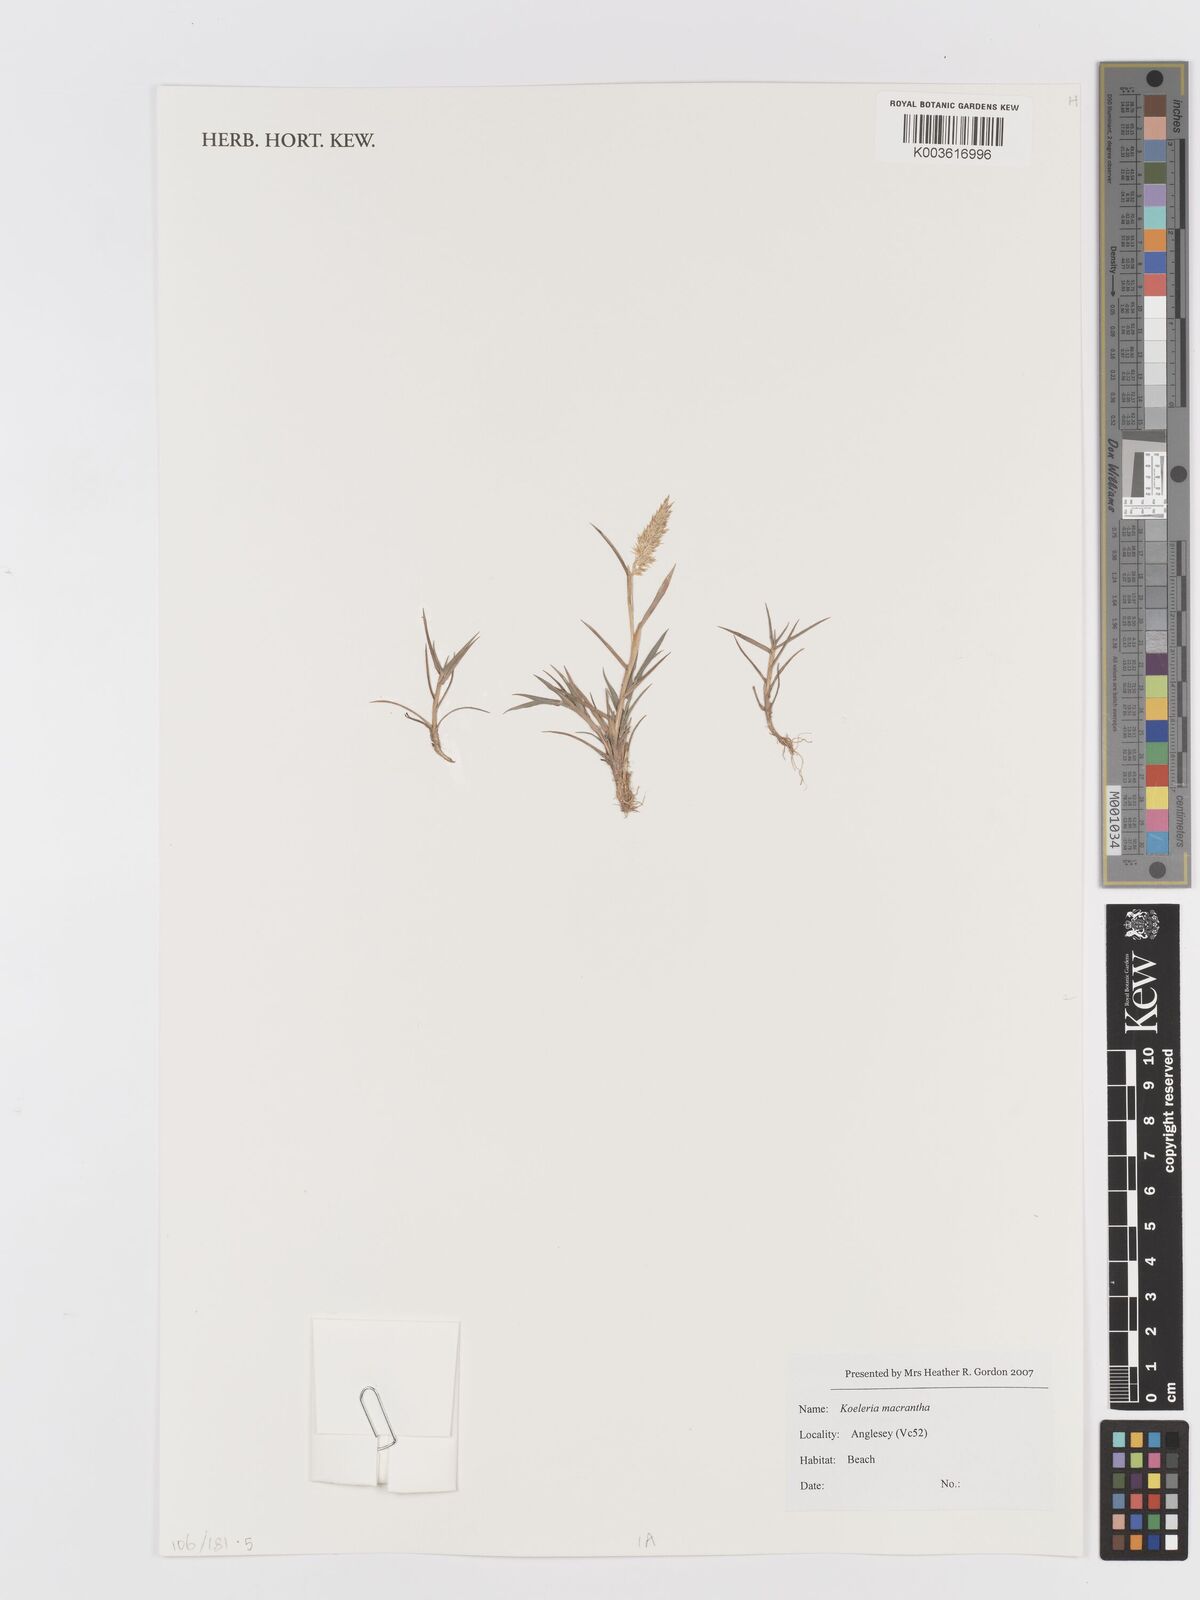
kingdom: Plantae
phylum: Tracheophyta
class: Liliopsida
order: Poales
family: Poaceae
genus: Koeleria
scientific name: Koeleria macrantha
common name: Crested hair-grass
